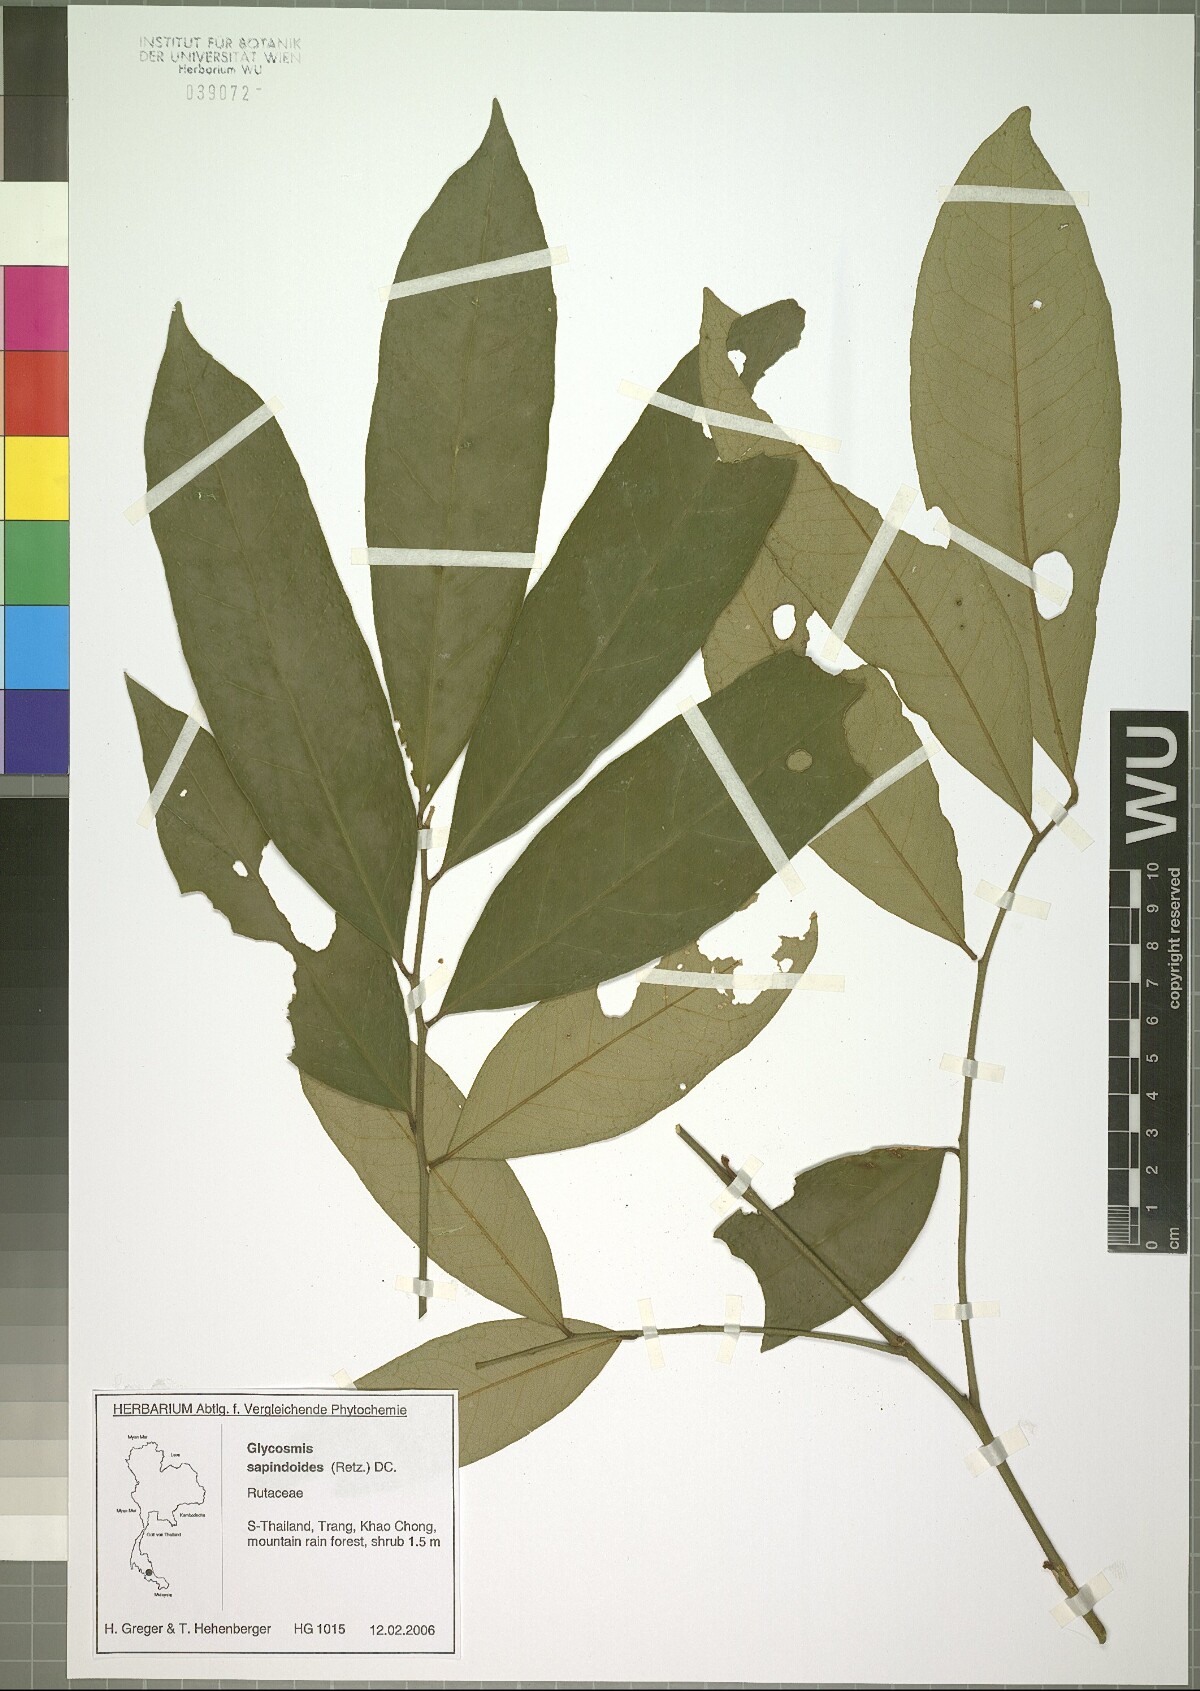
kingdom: Plantae
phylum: Tracheophyta
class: Magnoliopsida
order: Sapindales
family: Rutaceae
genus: Glycosmis
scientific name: Glycosmis macrophylla
